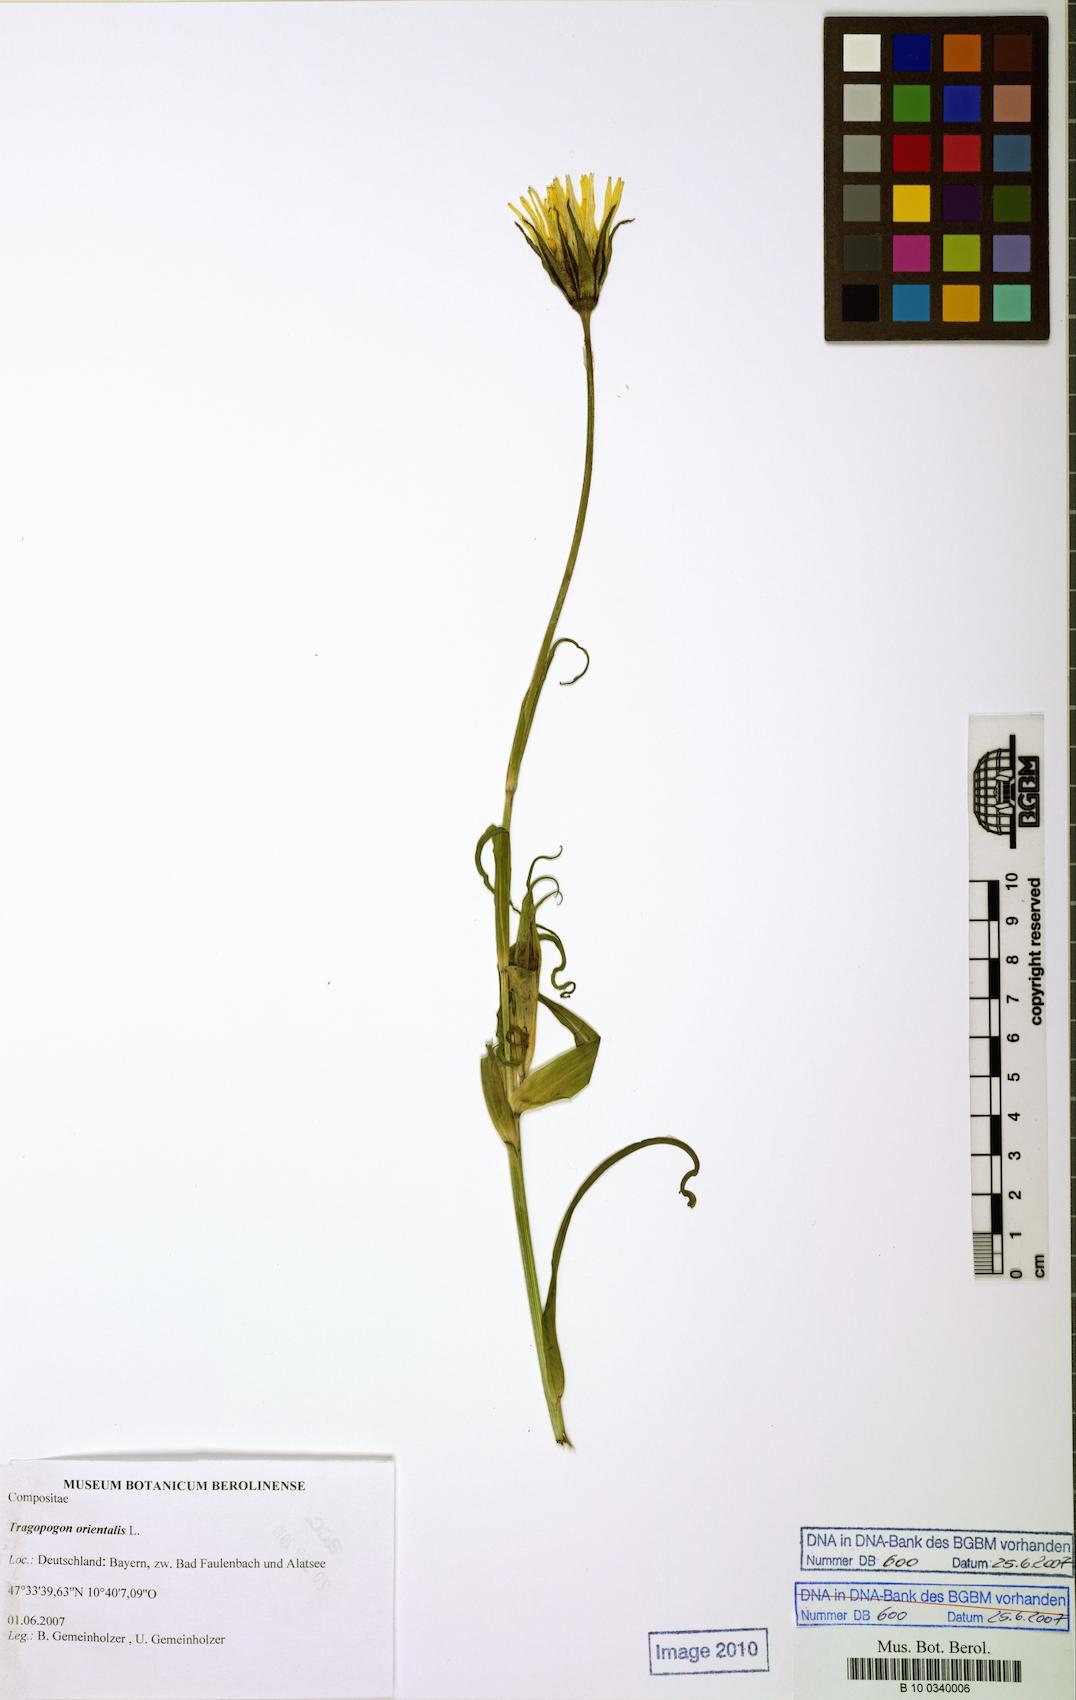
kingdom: Plantae
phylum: Tracheophyta
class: Magnoliopsida
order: Asterales
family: Asteraceae
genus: Tragopogon
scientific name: Tragopogon orientalis
